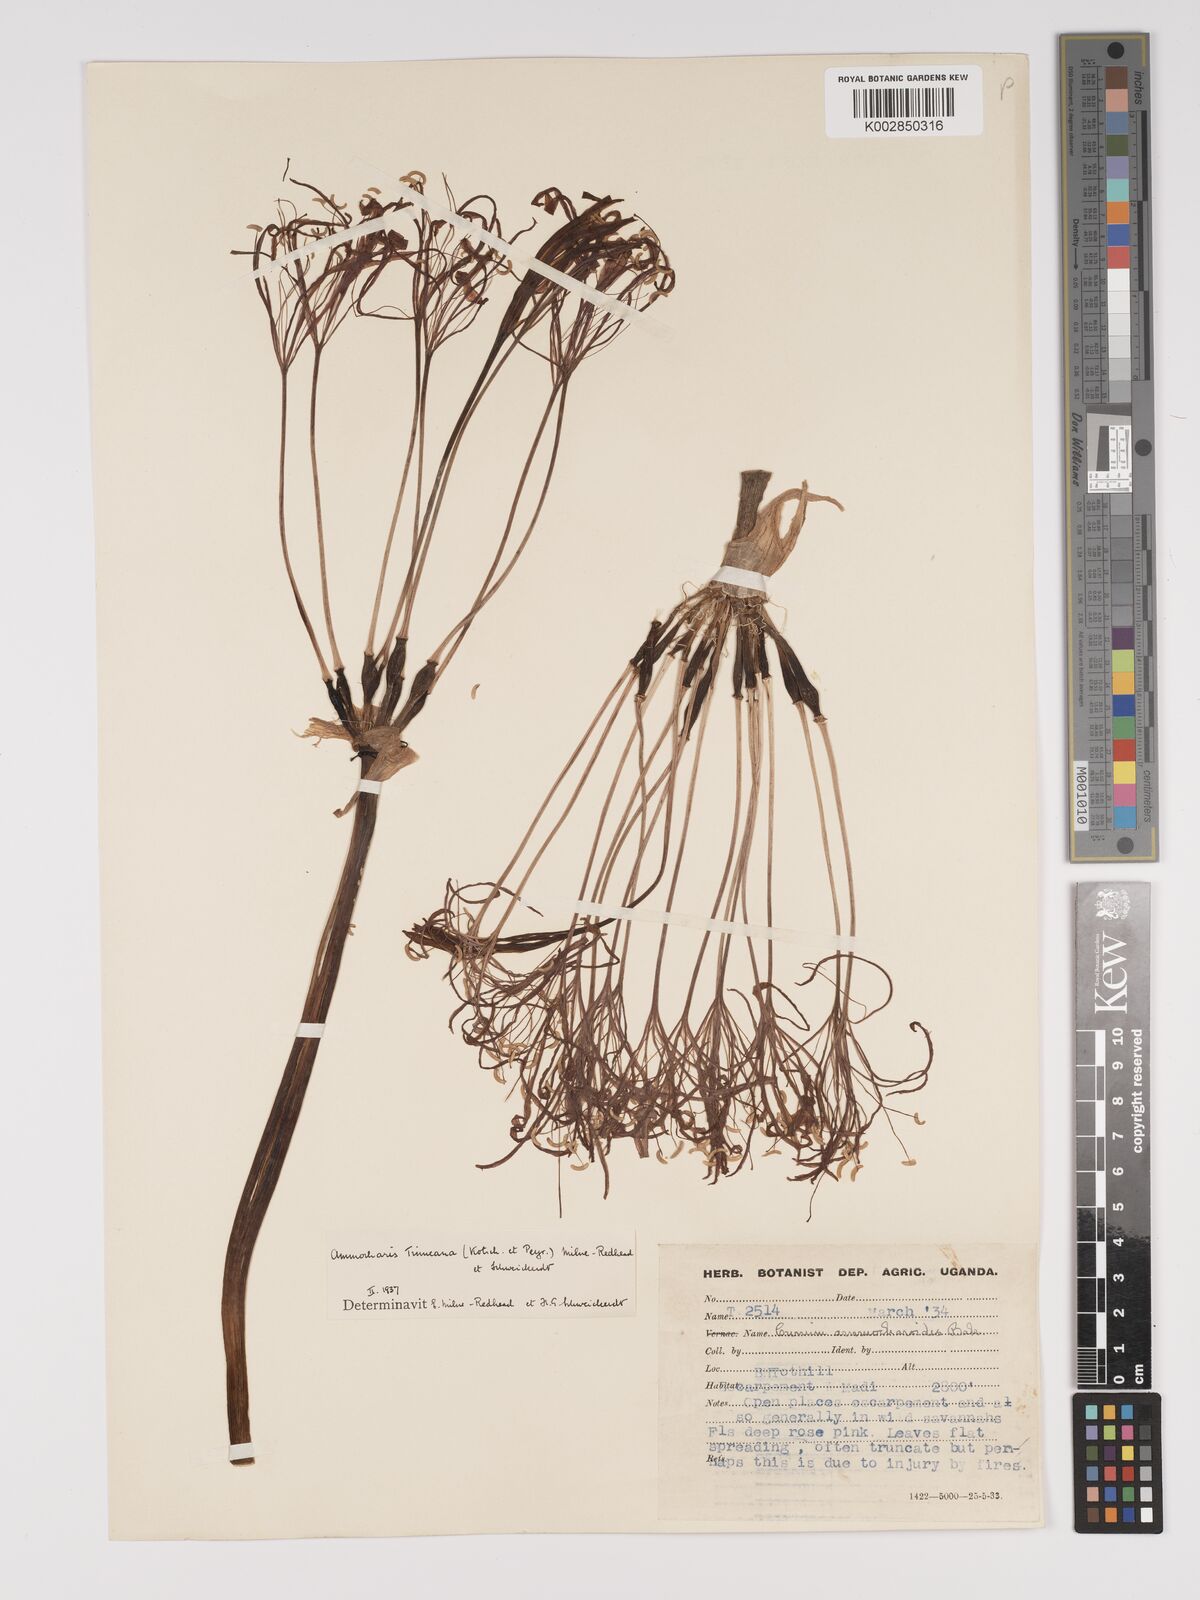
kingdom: Plantae
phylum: Tracheophyta
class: Liliopsida
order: Asparagales
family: Amaryllidaceae
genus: Ammocharis
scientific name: Ammocharis tinneana
